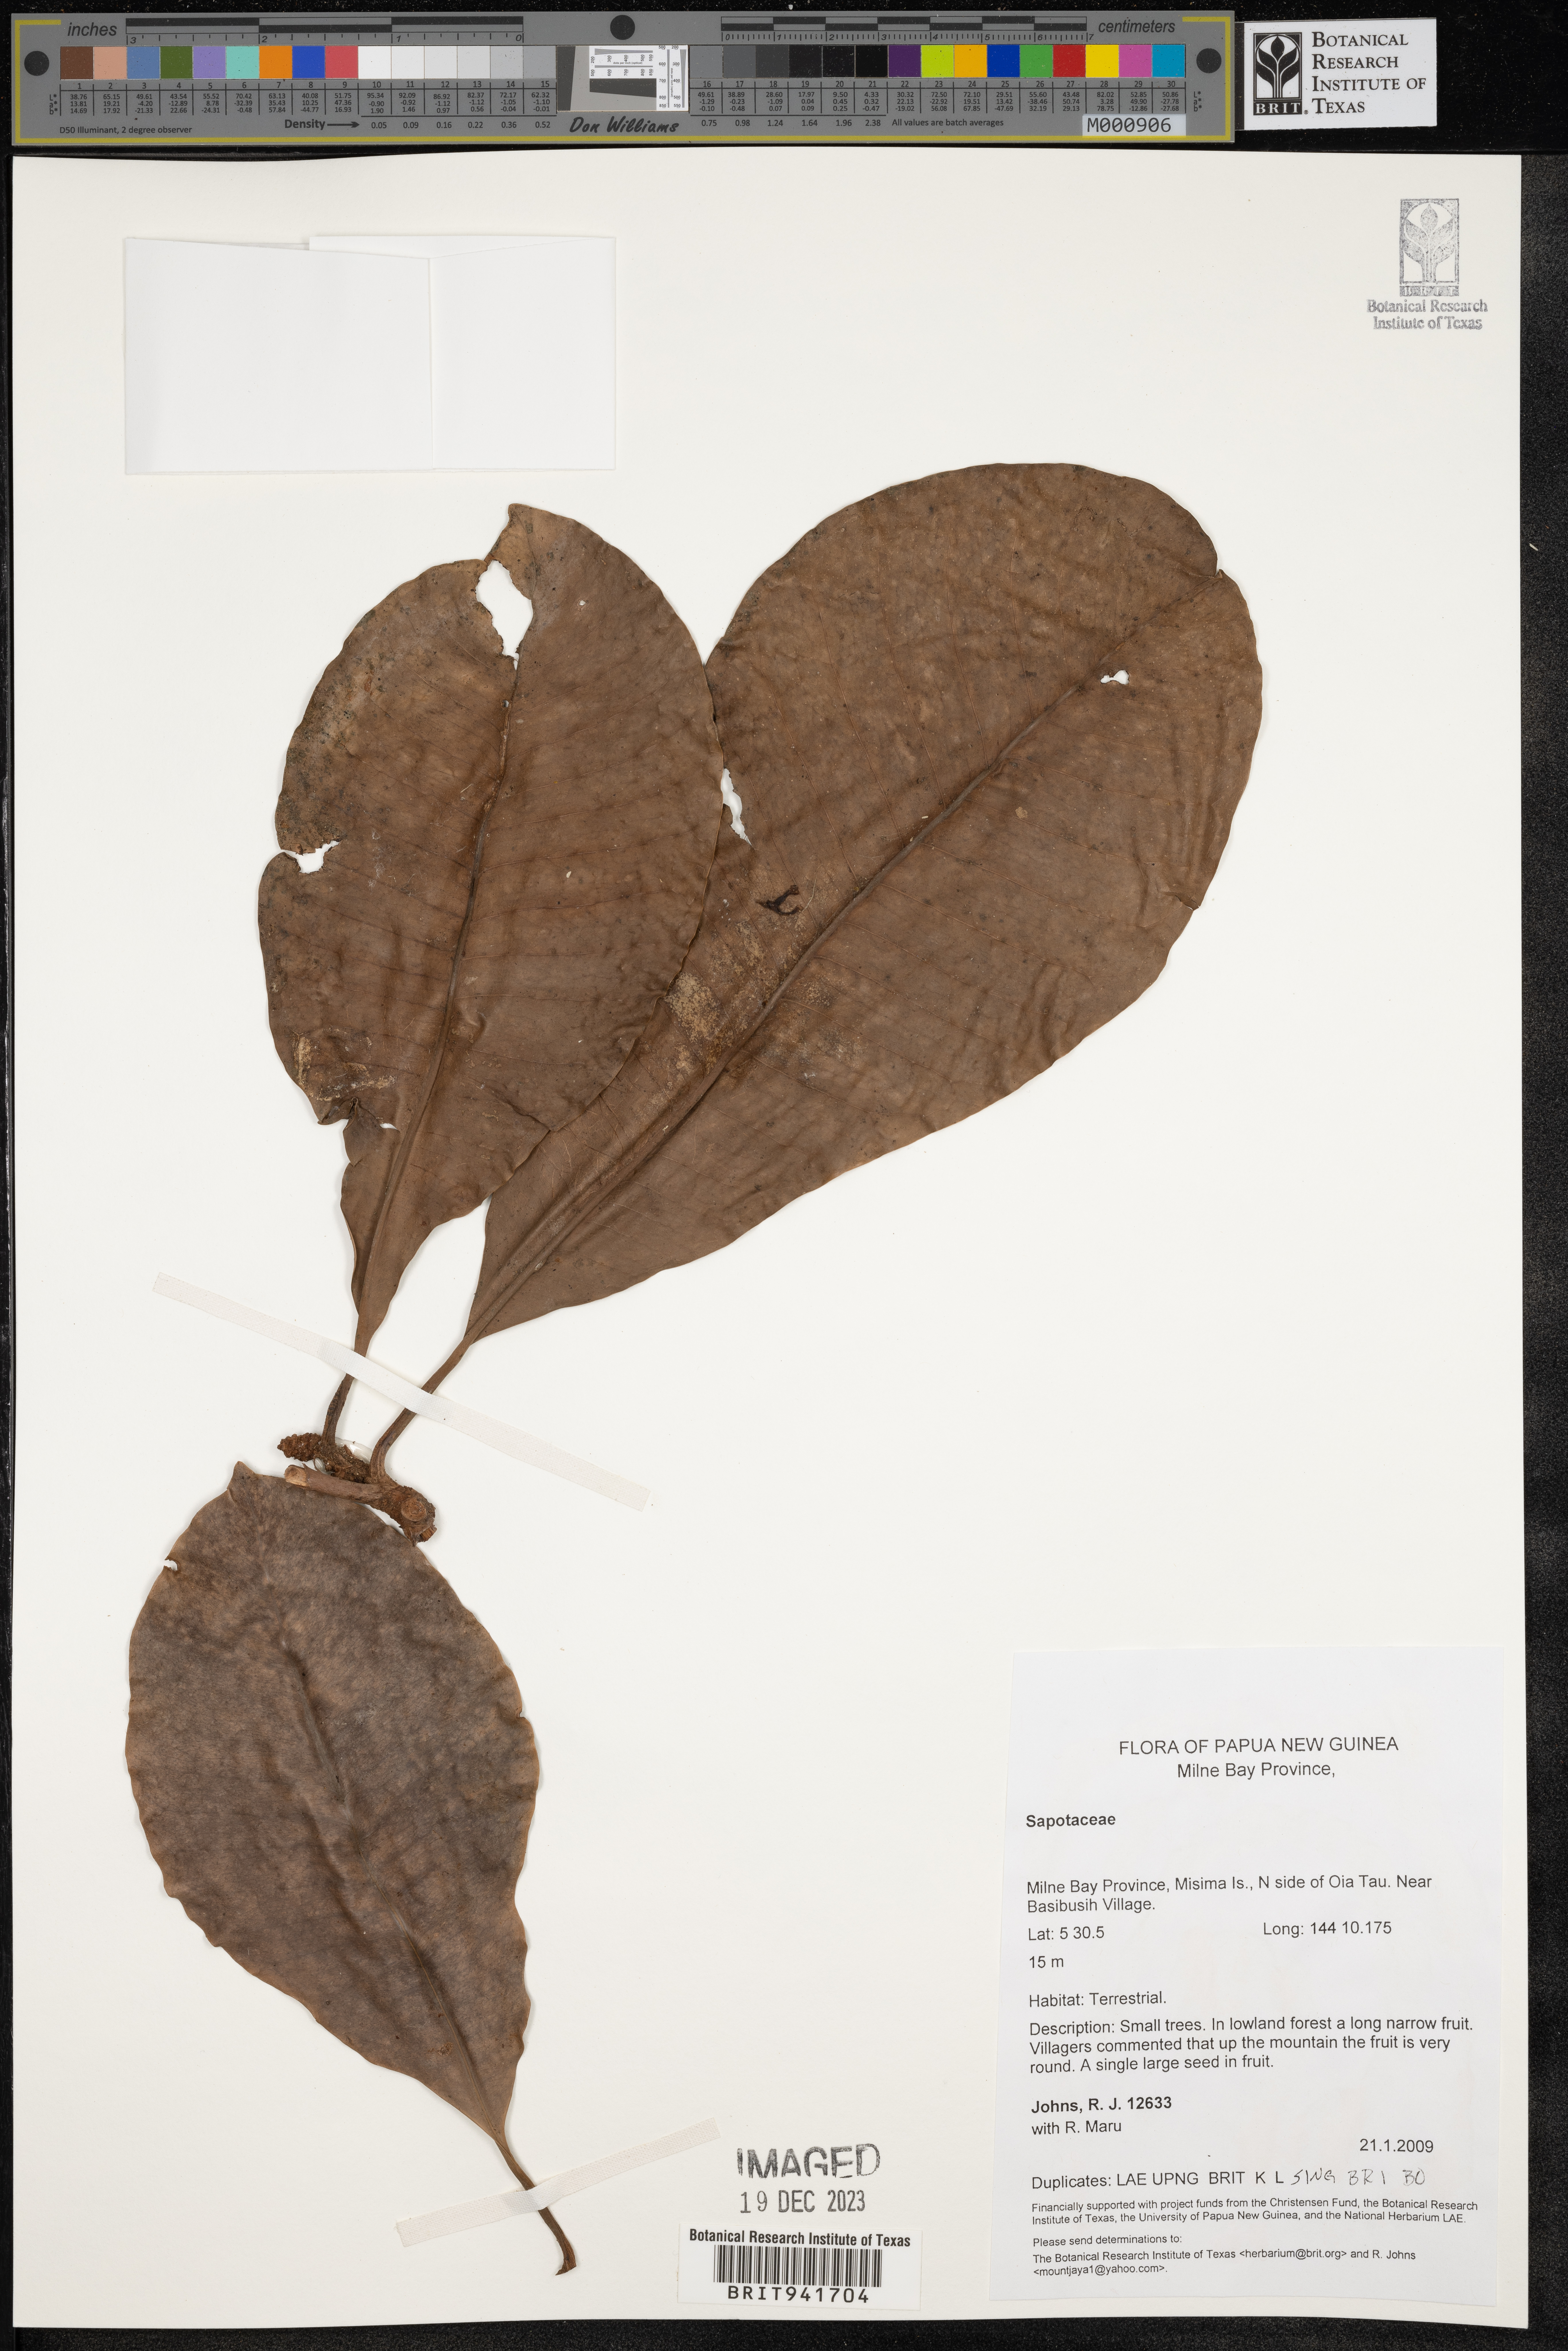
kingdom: Plantae
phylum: Tracheophyta
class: Magnoliopsida
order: Ericales
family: Sapotaceae
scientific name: Sapotaceae
